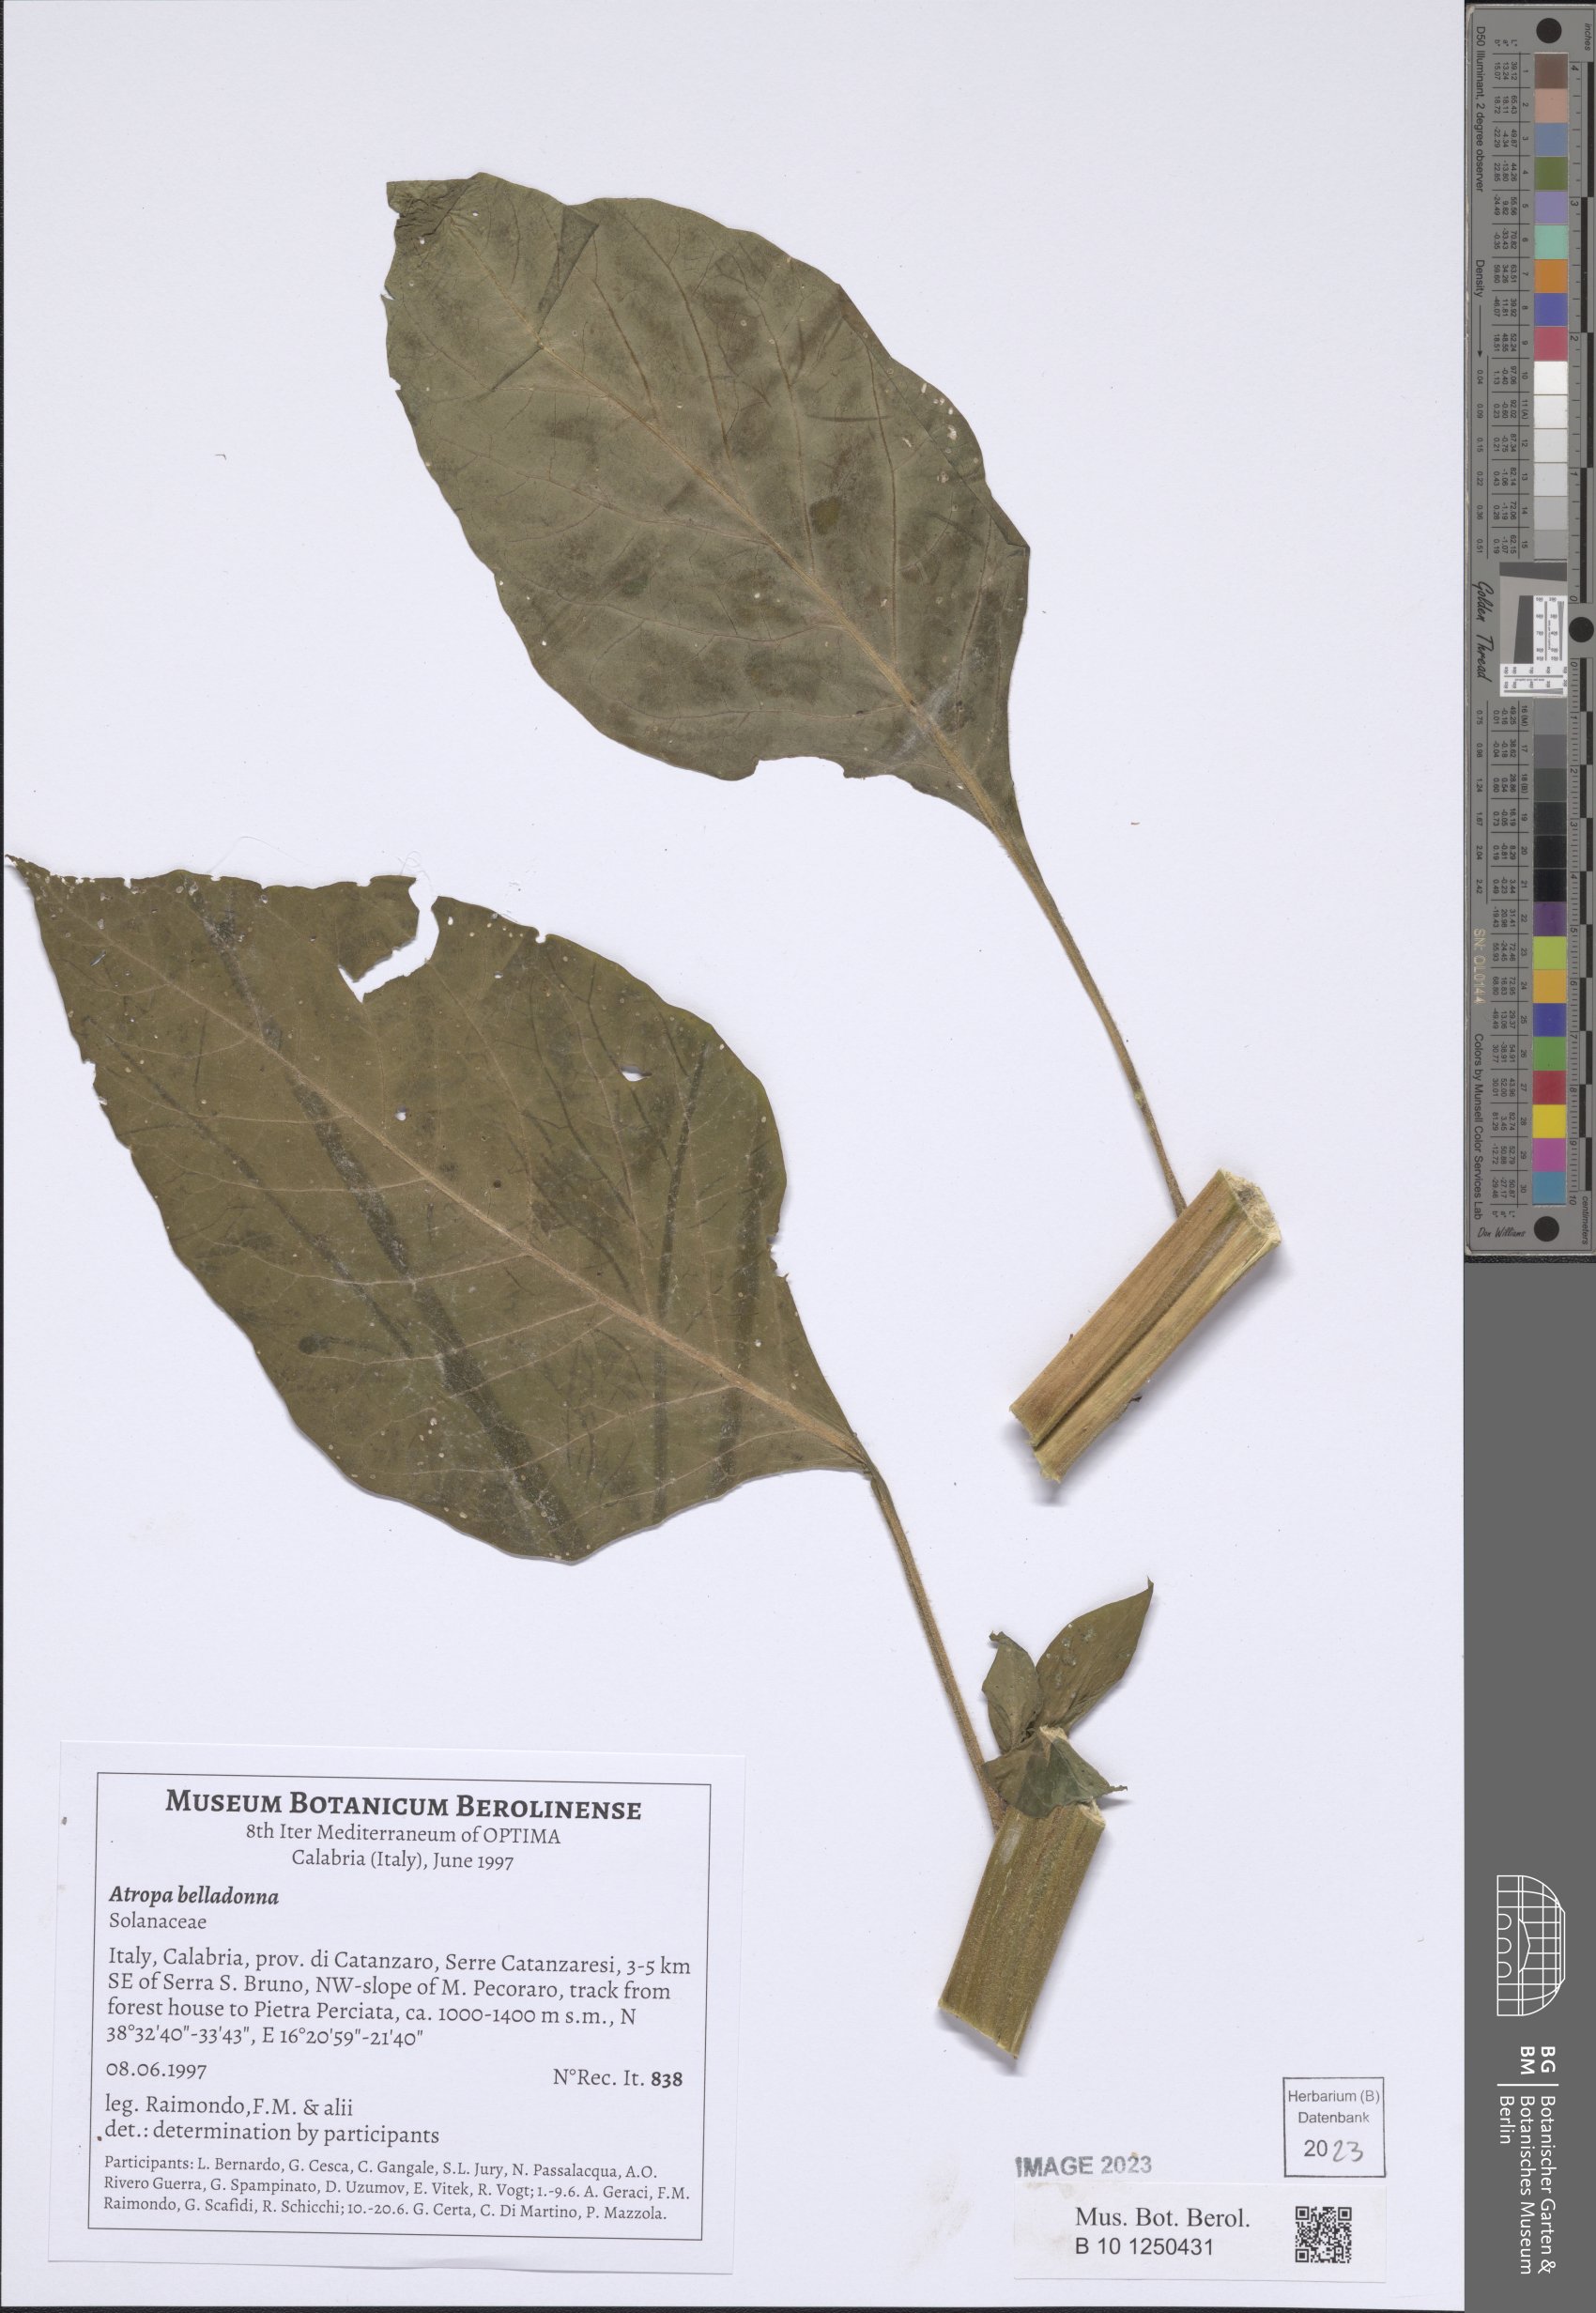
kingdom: Plantae
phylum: Tracheophyta
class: Magnoliopsida
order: Solanales
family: Solanaceae
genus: Atropa
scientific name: Atropa belladonna
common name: Deadly nightshade
